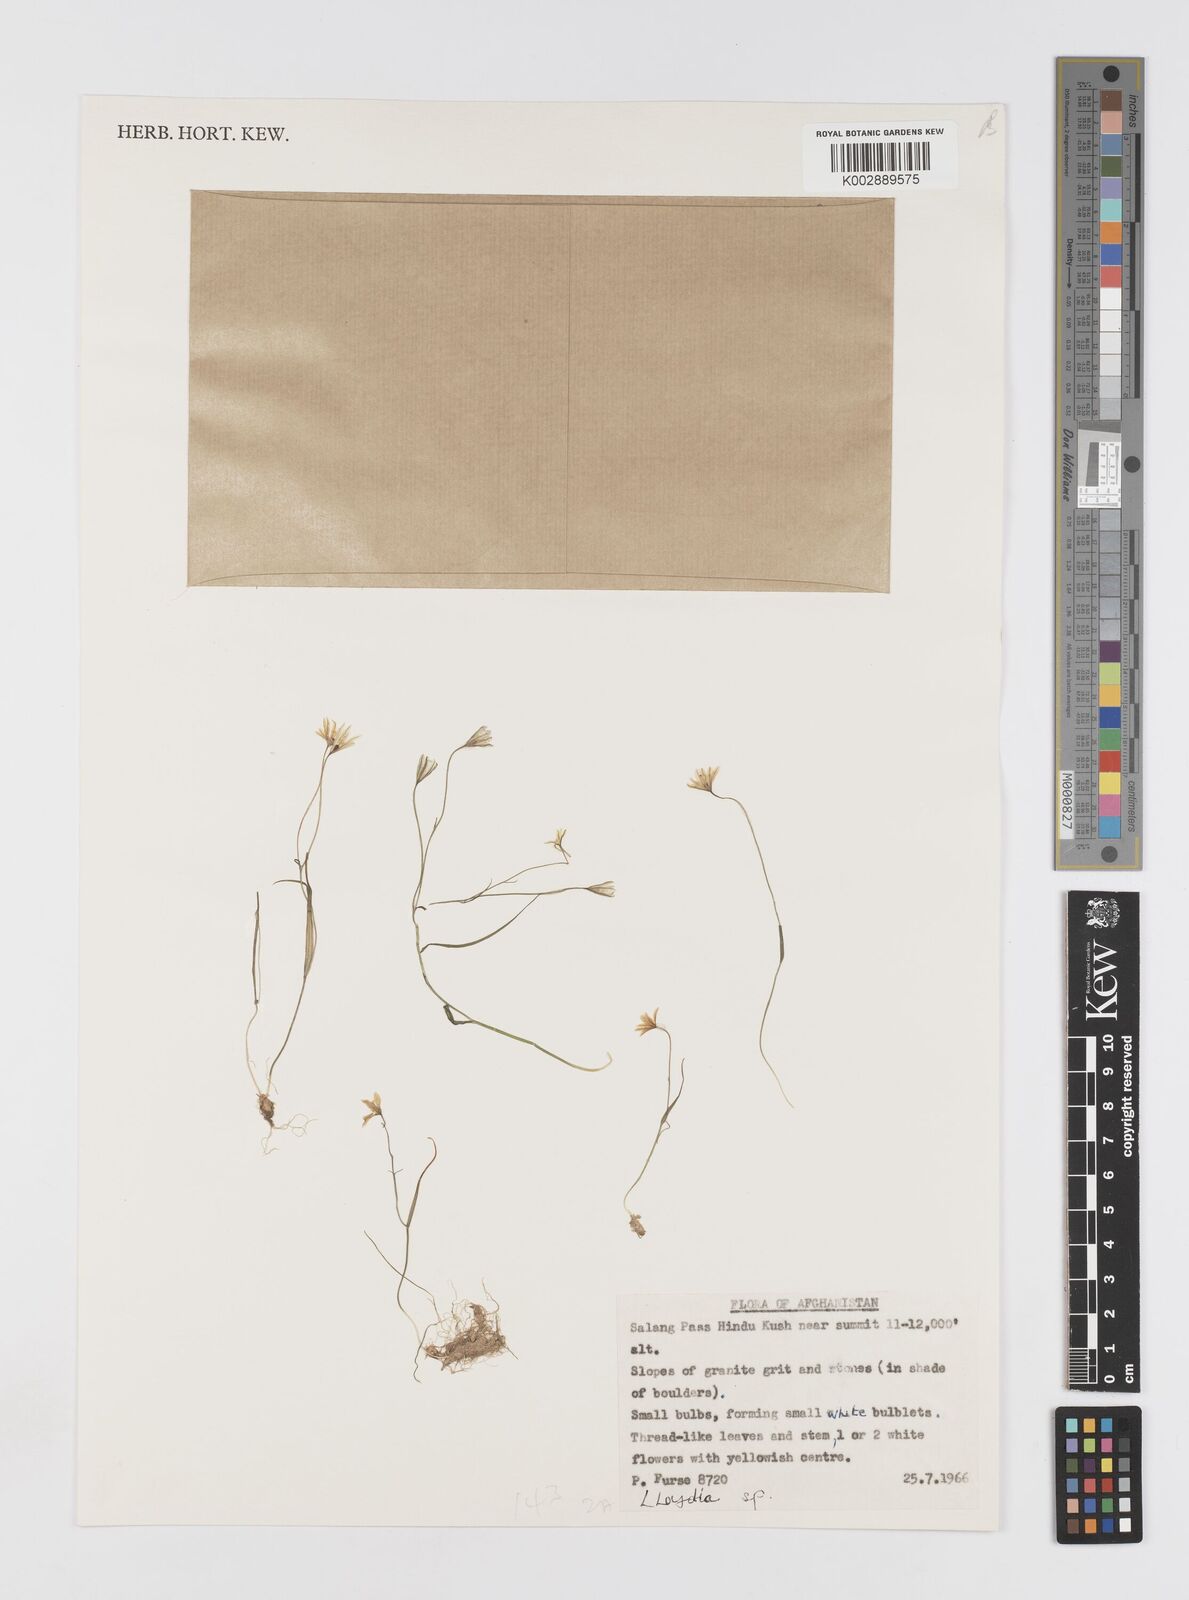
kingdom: Plantae
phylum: Tracheophyta
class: Liliopsida
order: Liliales
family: Liliaceae
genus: Gagea
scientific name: Gagea
